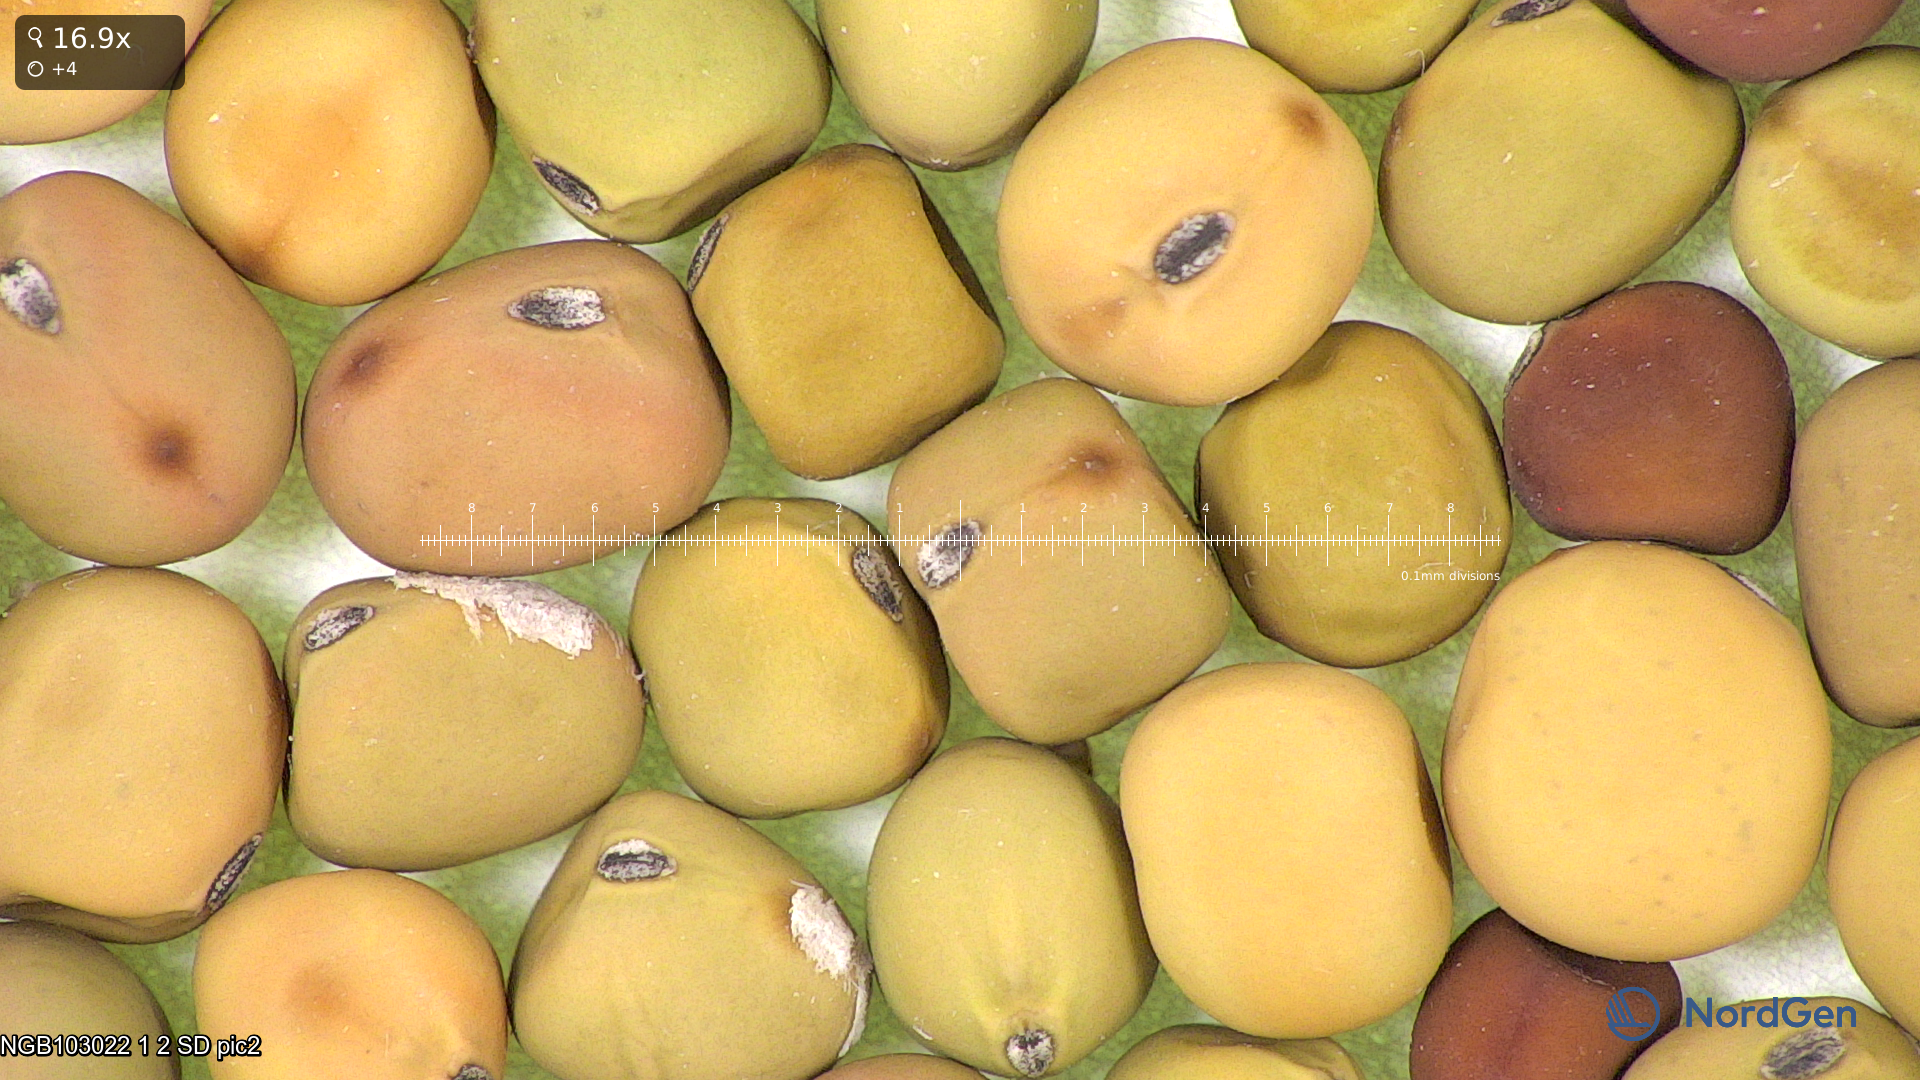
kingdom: Plantae
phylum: Tracheophyta
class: Magnoliopsida
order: Fabales
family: Fabaceae
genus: Lathyrus
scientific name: Lathyrus oleraceus
